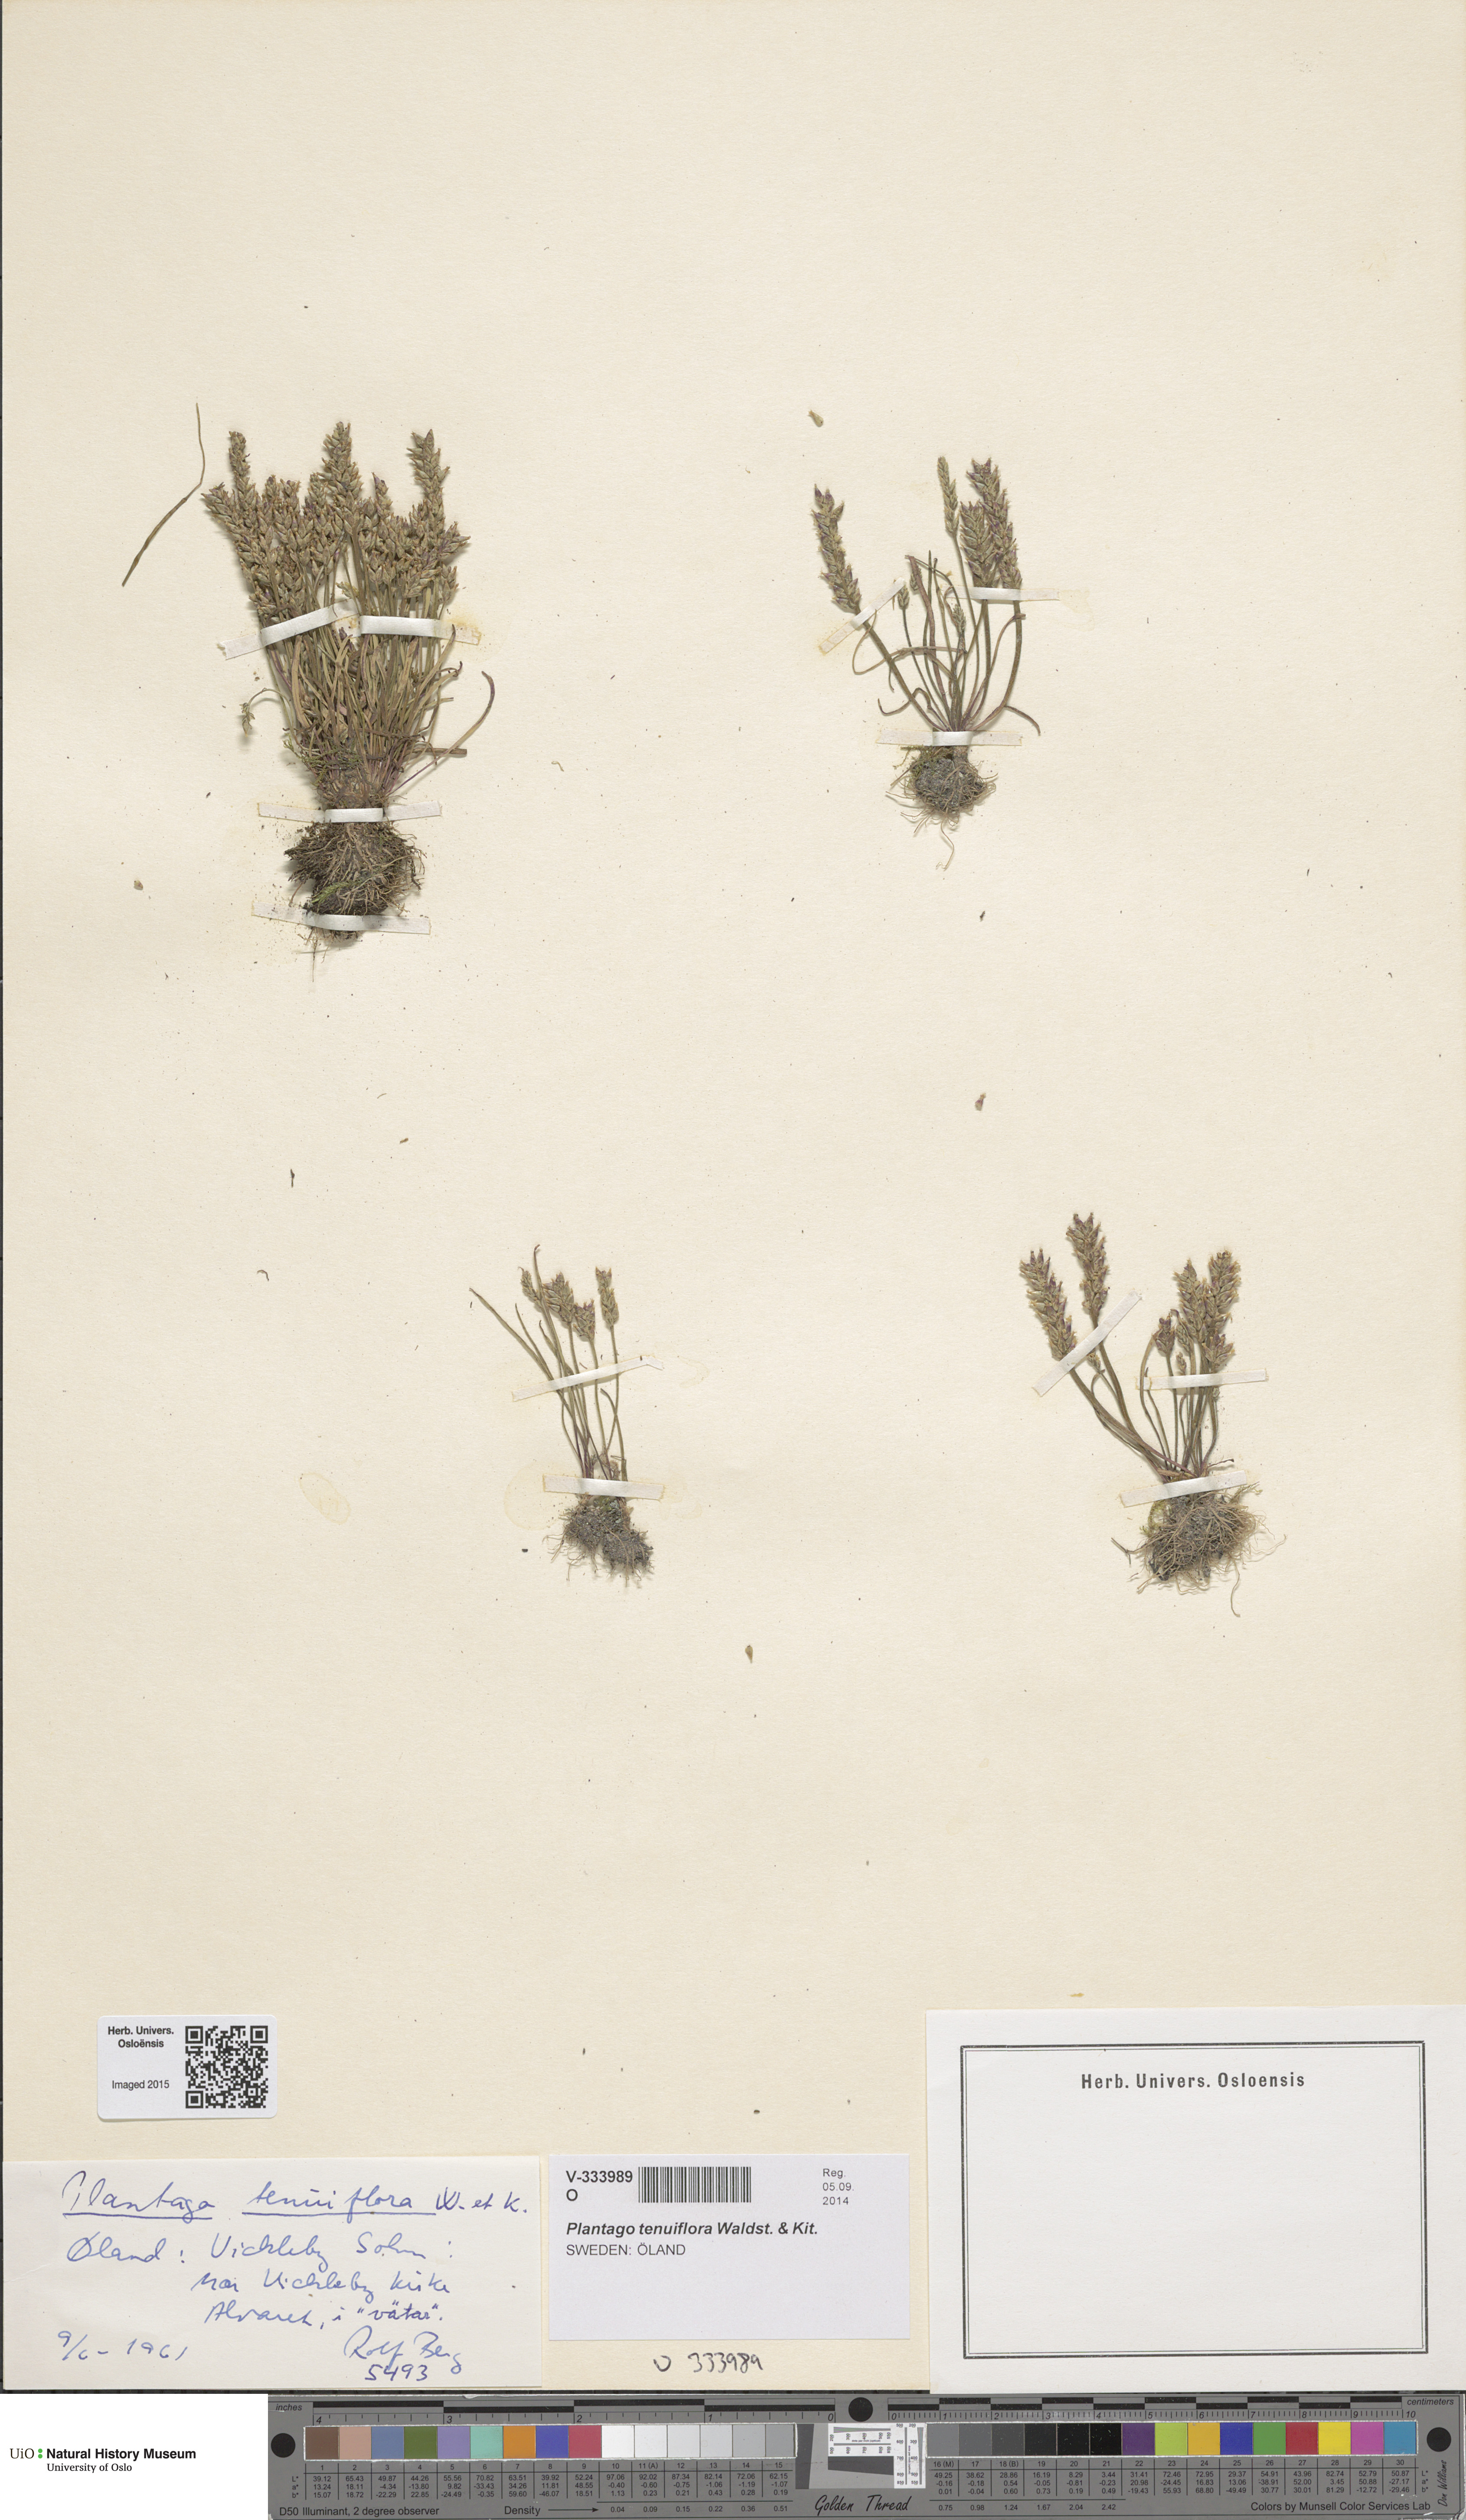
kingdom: Plantae
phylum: Tracheophyta
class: Magnoliopsida
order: Lamiales
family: Plantaginaceae
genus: Plantago
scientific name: Plantago tenuiflora
